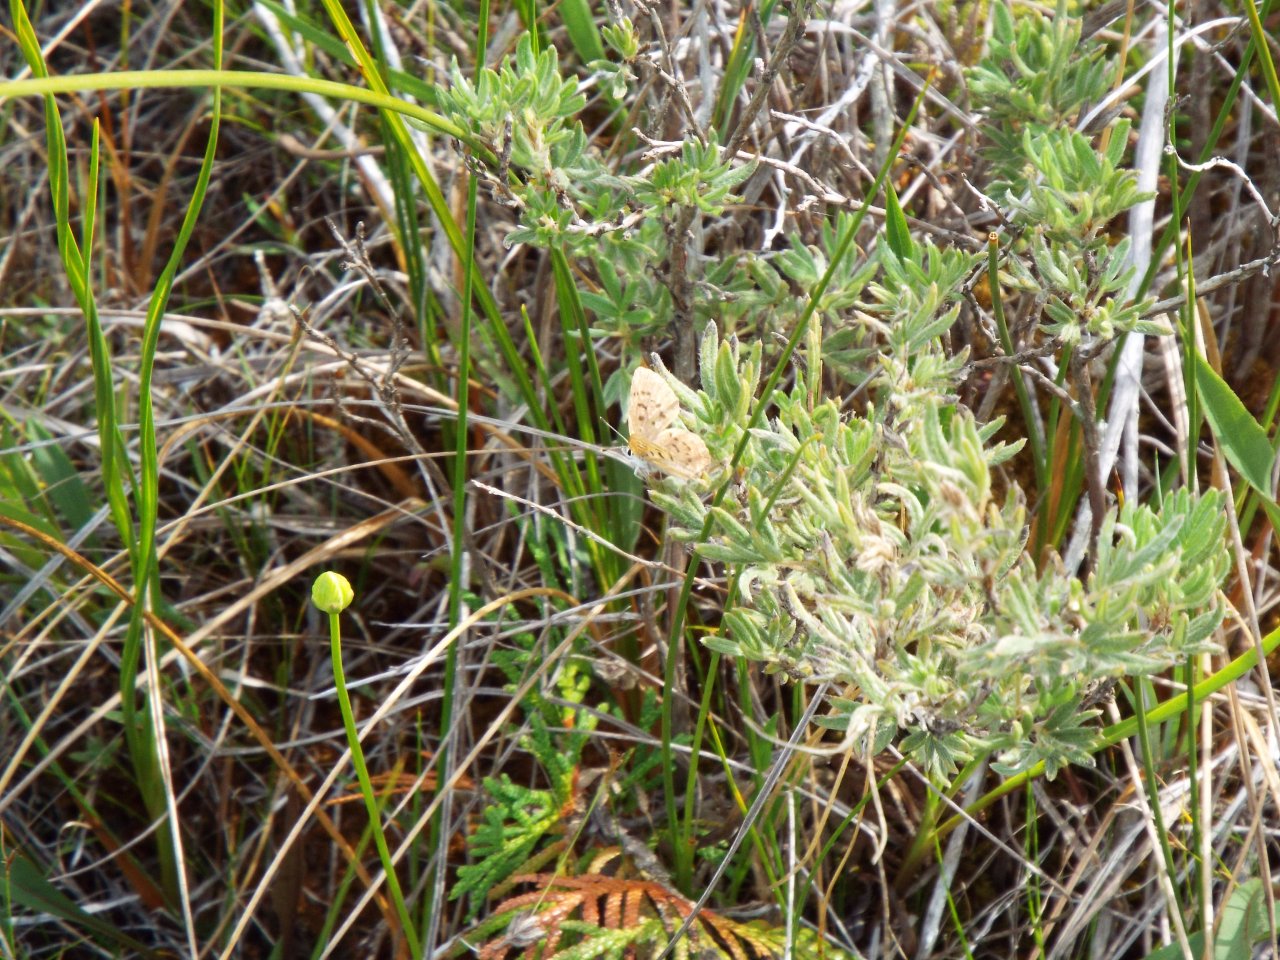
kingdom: Animalia
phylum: Arthropoda
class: Insecta
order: Lepidoptera
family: Lycaenidae
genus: Epidemia
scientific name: Epidemia dorcas
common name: Dorcas Copper
